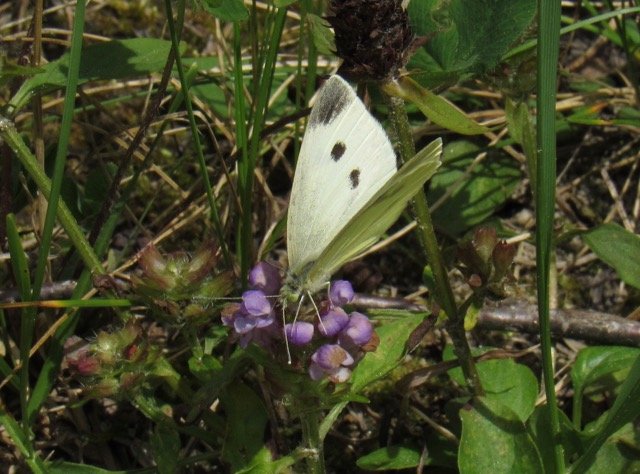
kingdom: Animalia
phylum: Arthropoda
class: Insecta
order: Lepidoptera
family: Pieridae
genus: Pieris
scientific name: Pieris rapae
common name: Cabbage White
